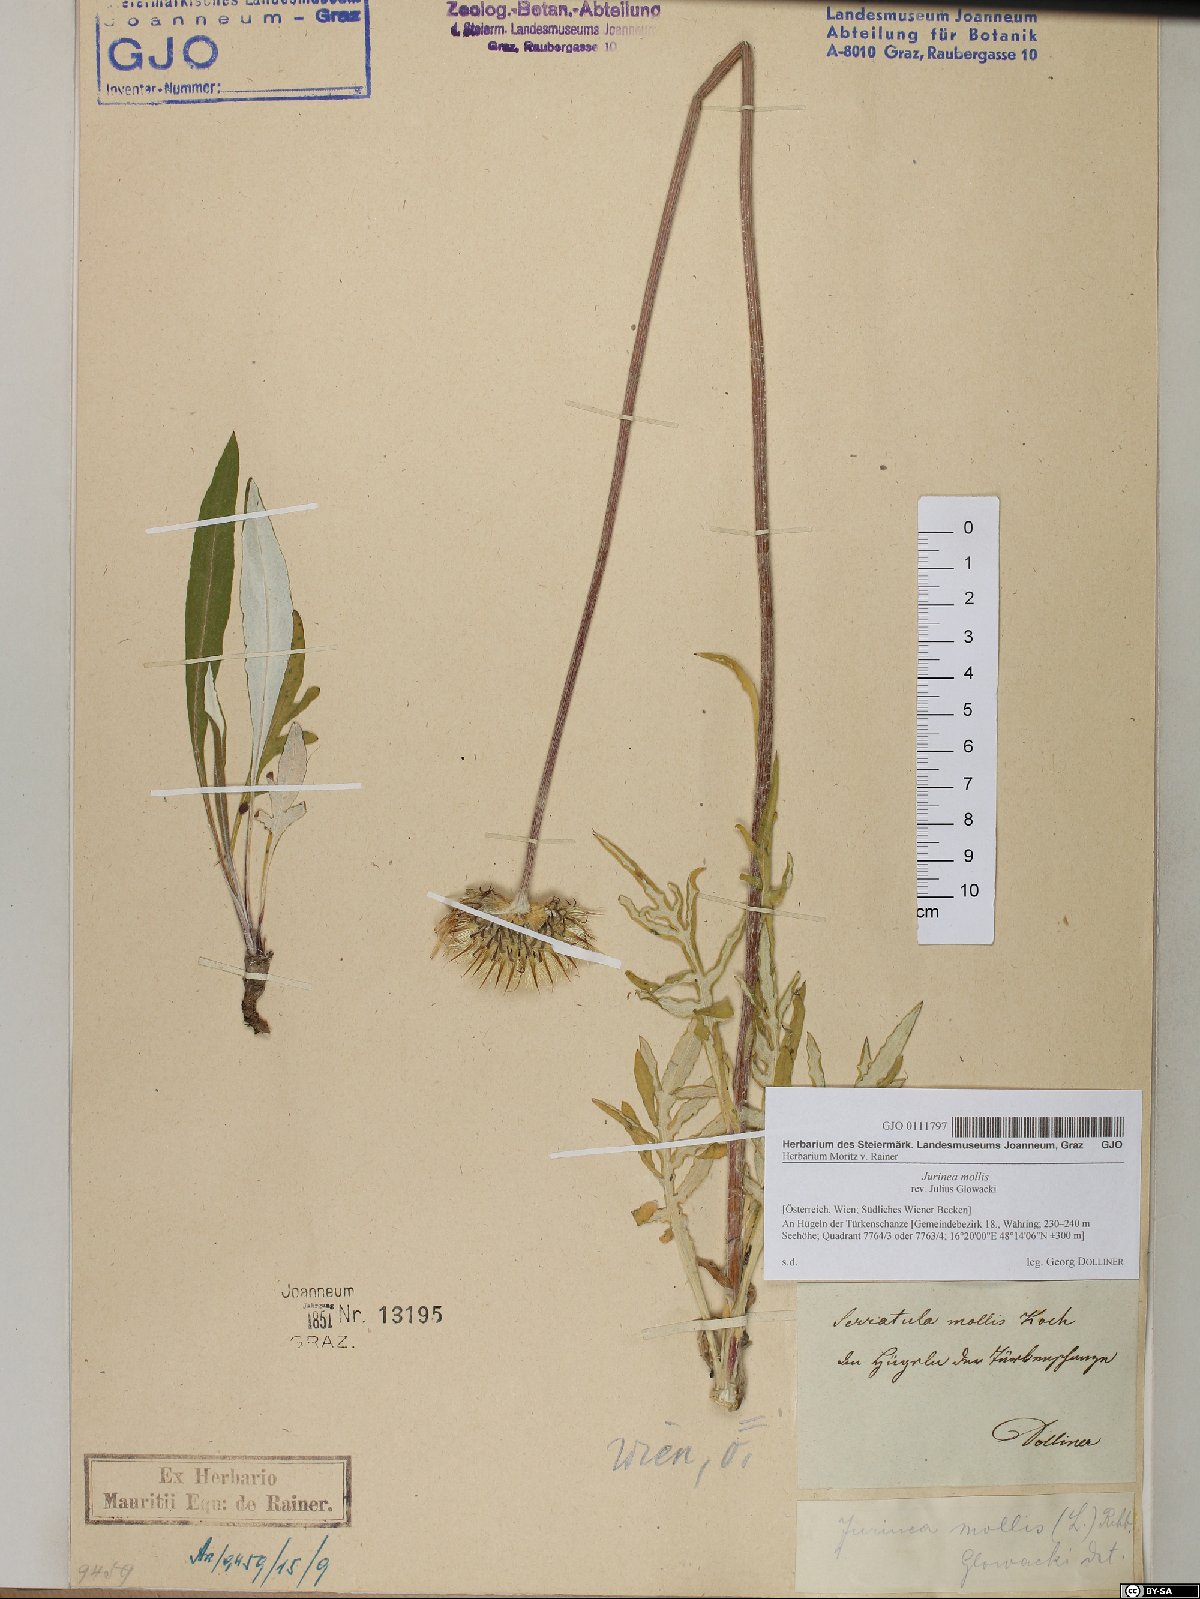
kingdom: Plantae
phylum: Tracheophyta
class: Magnoliopsida
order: Asterales
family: Asteraceae
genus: Jurinea
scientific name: Jurinea mollis
